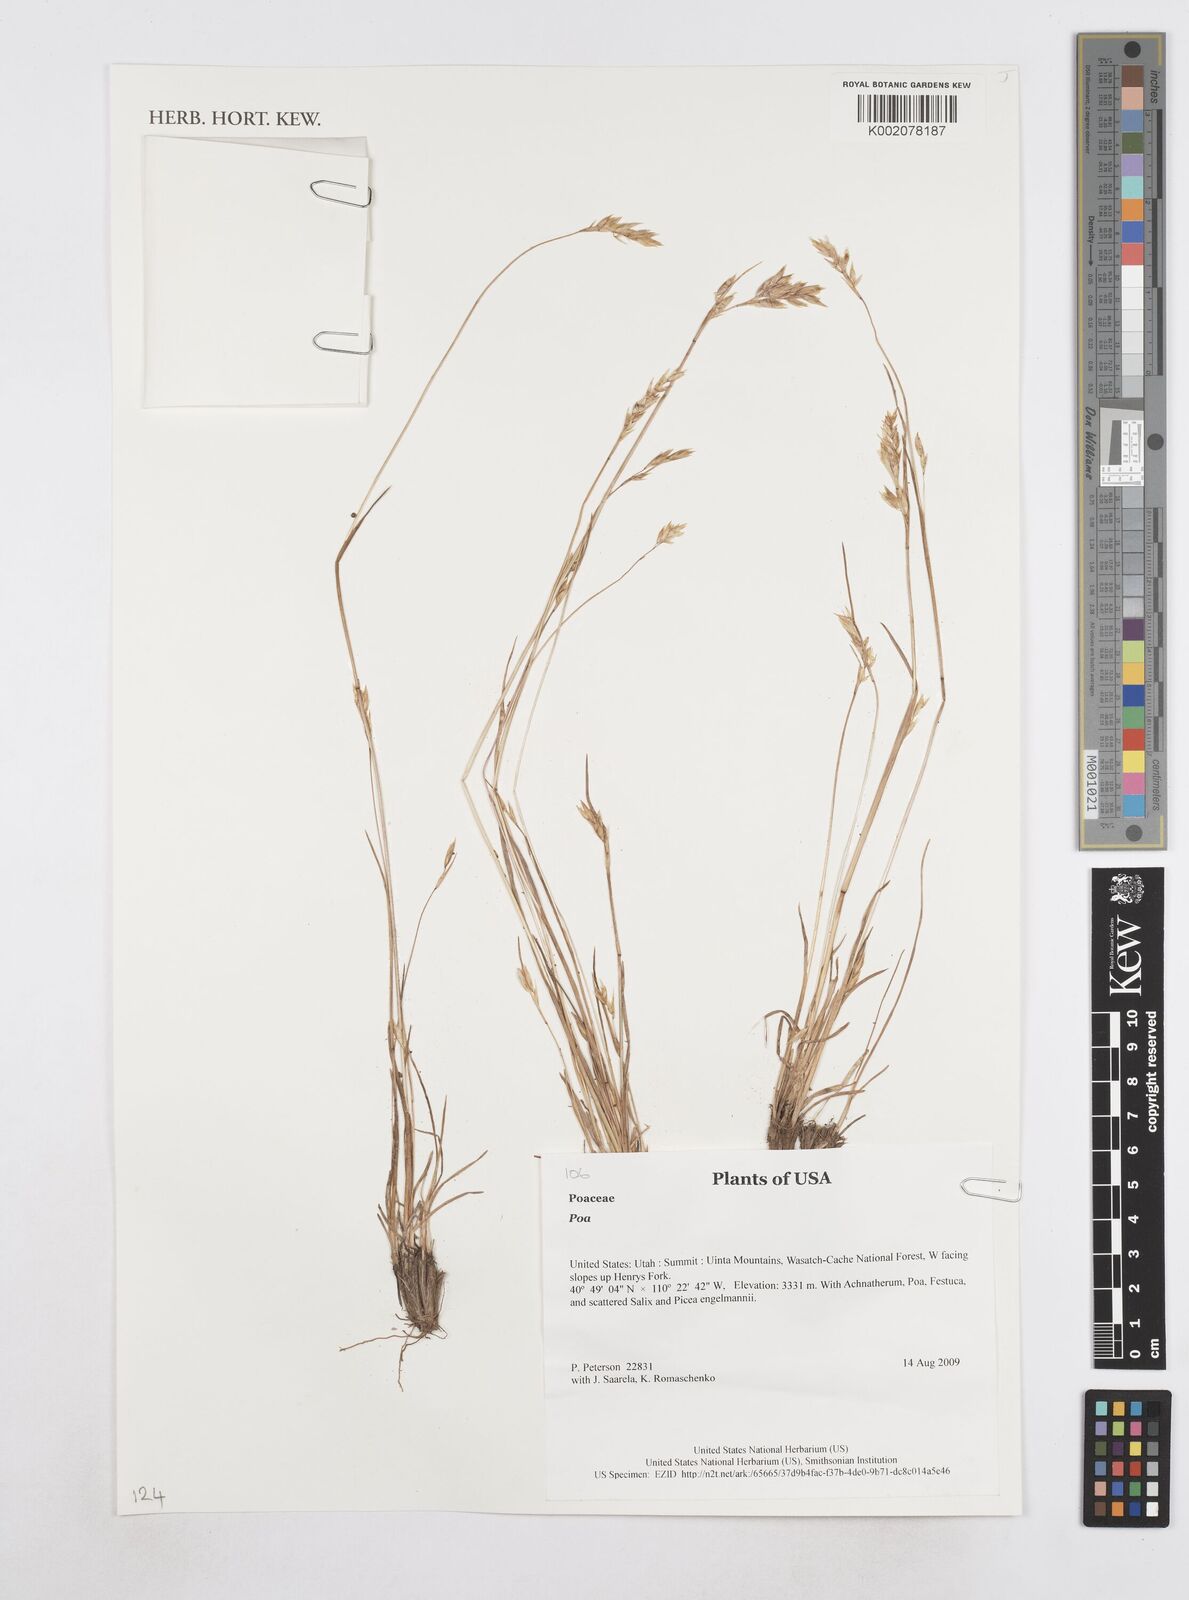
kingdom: Plantae
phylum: Tracheophyta
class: Liliopsida
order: Poales
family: Poaceae
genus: Poa
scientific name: Poa
